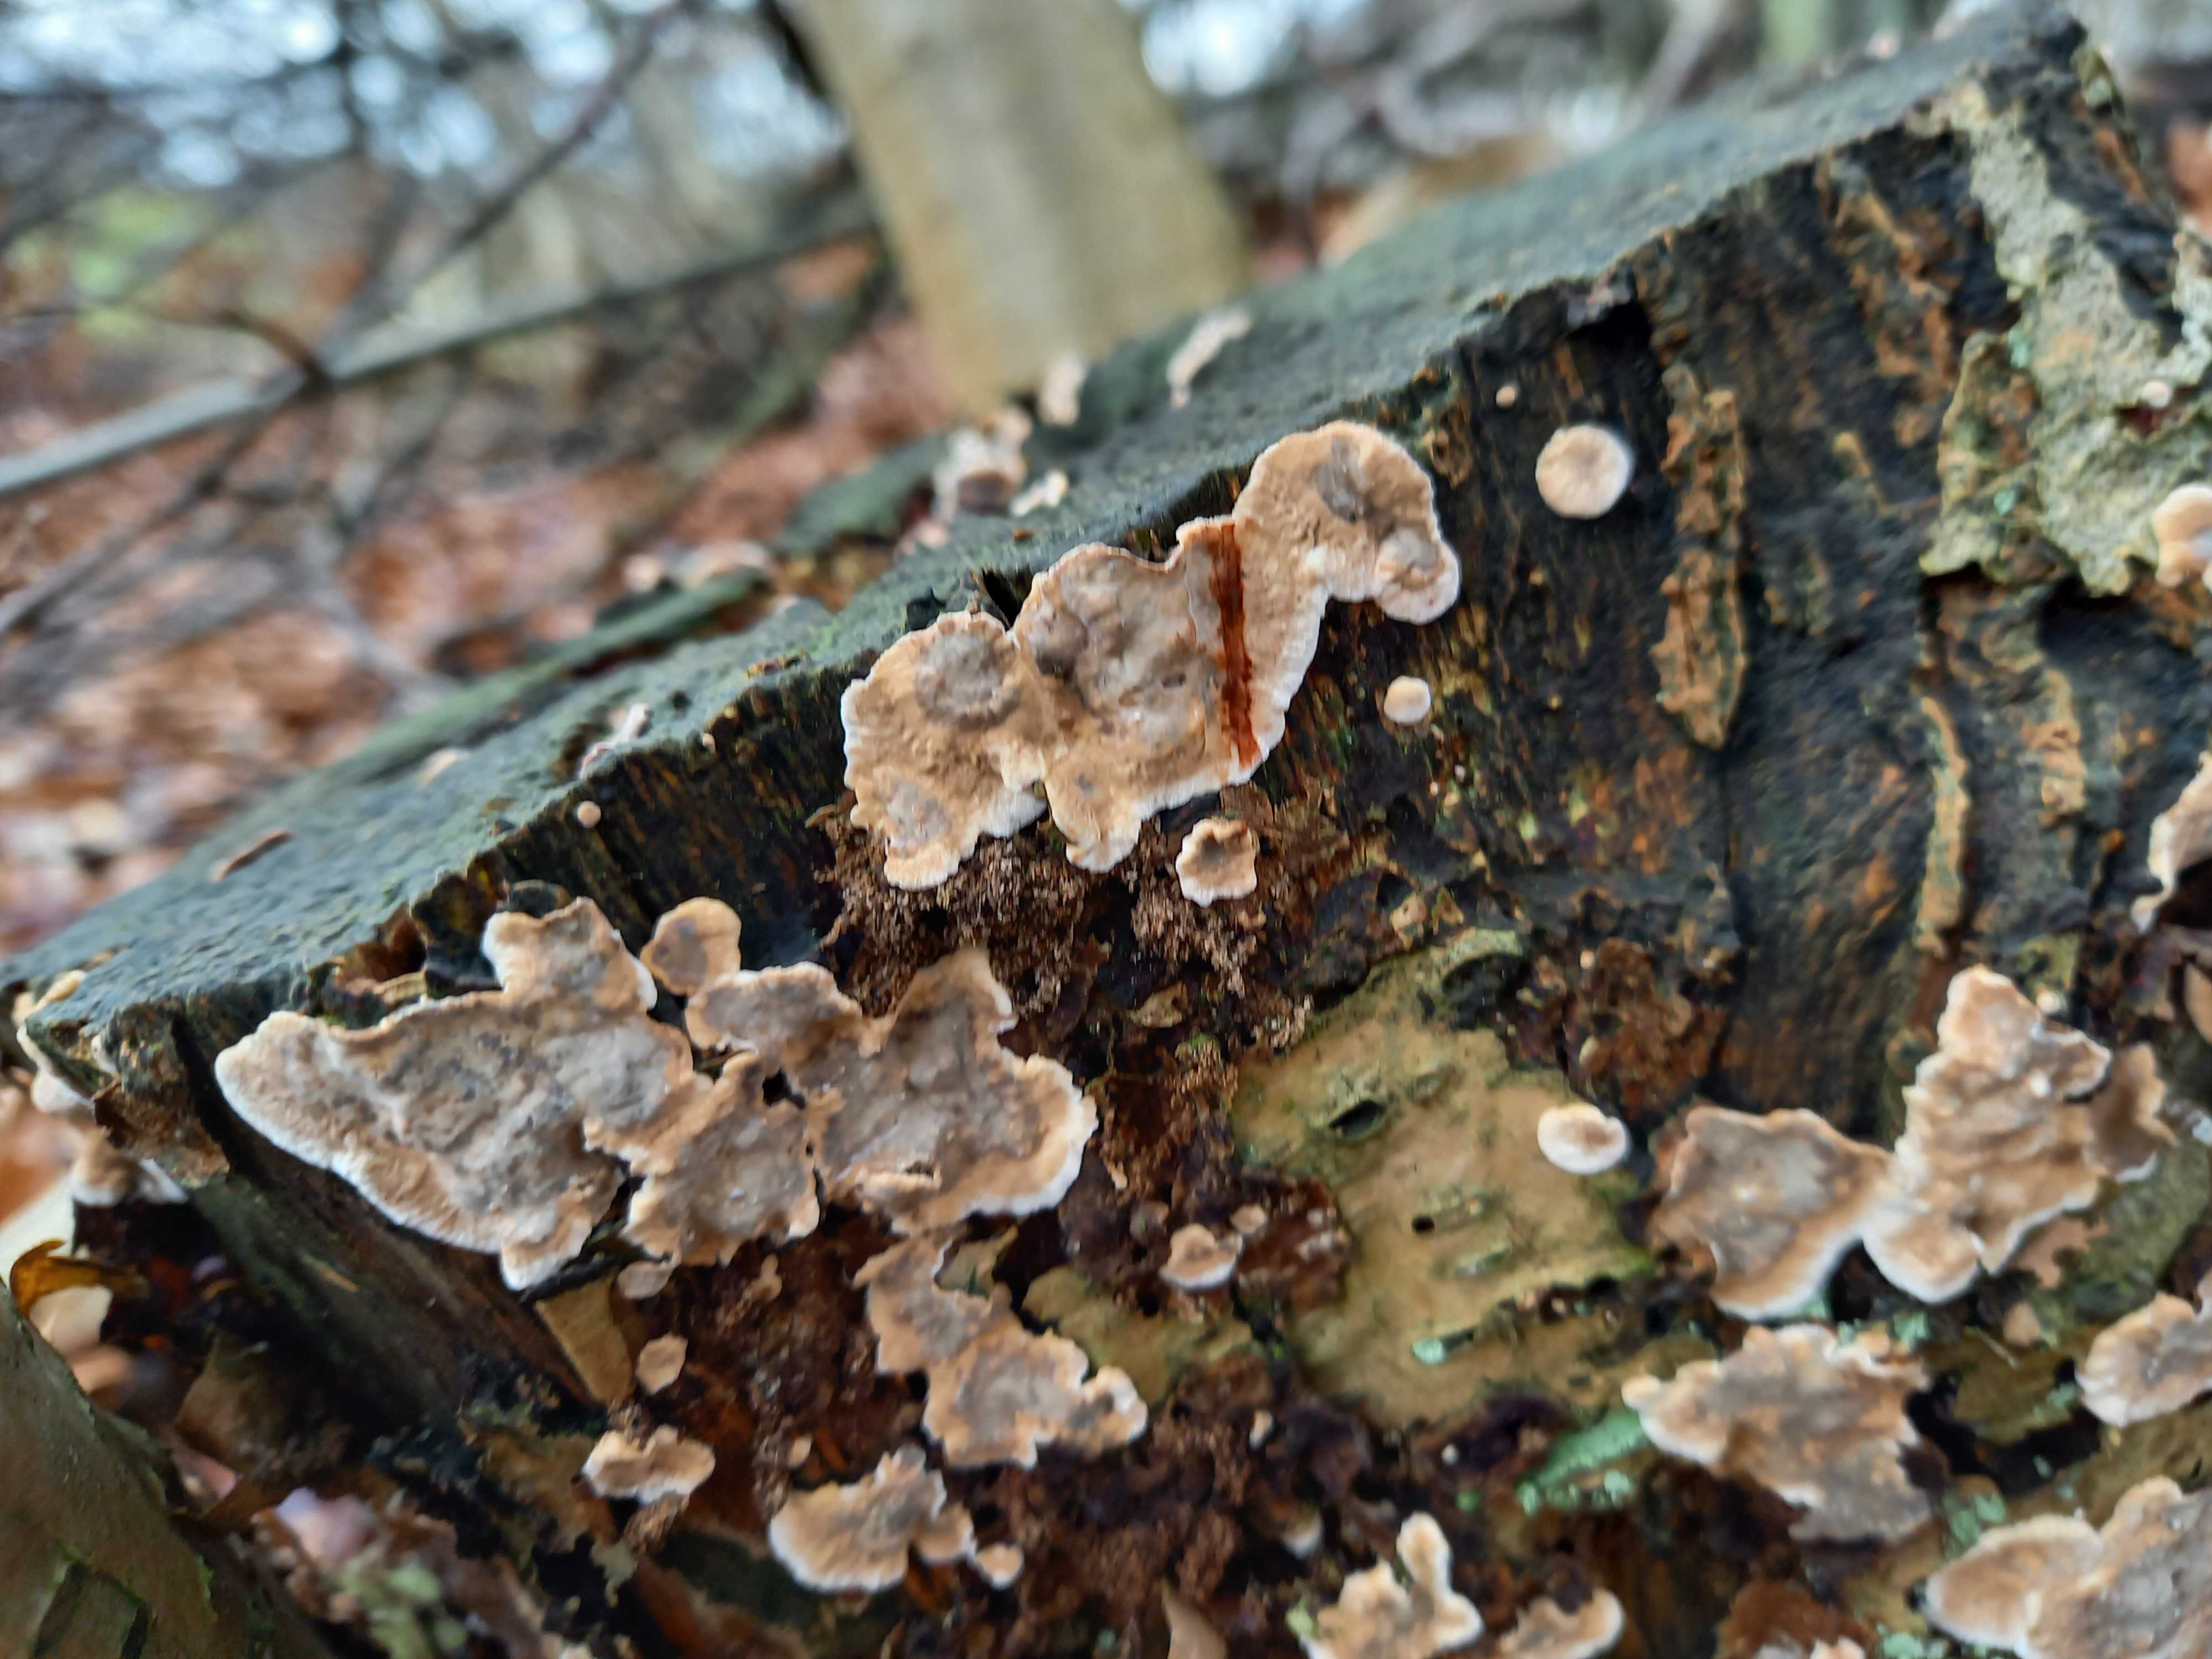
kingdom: Fungi
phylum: Basidiomycota
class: Agaricomycetes
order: Russulales
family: Stereaceae
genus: Stereum
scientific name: Stereum rugosum
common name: rynket lædersvamp
